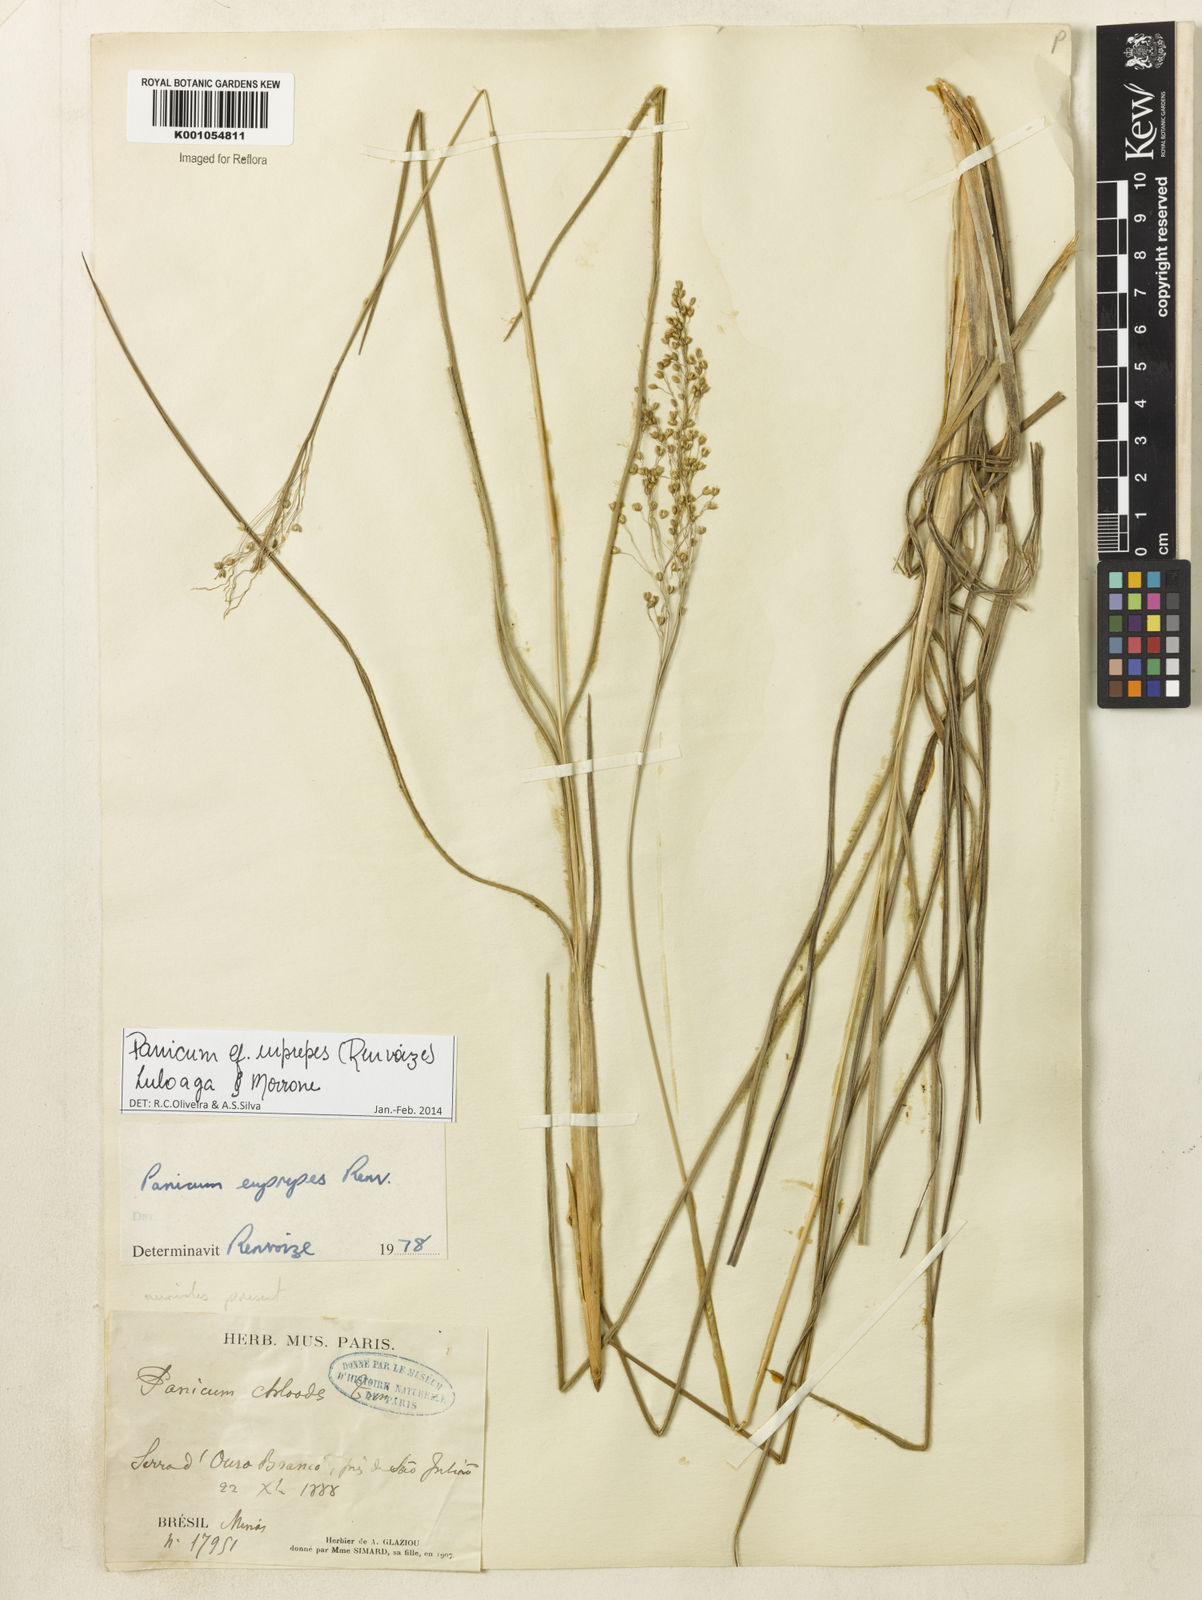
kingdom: Plantae
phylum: Tracheophyta
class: Liliopsida
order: Poales
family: Poaceae
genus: Apochloa
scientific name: Apochloa euprepes
